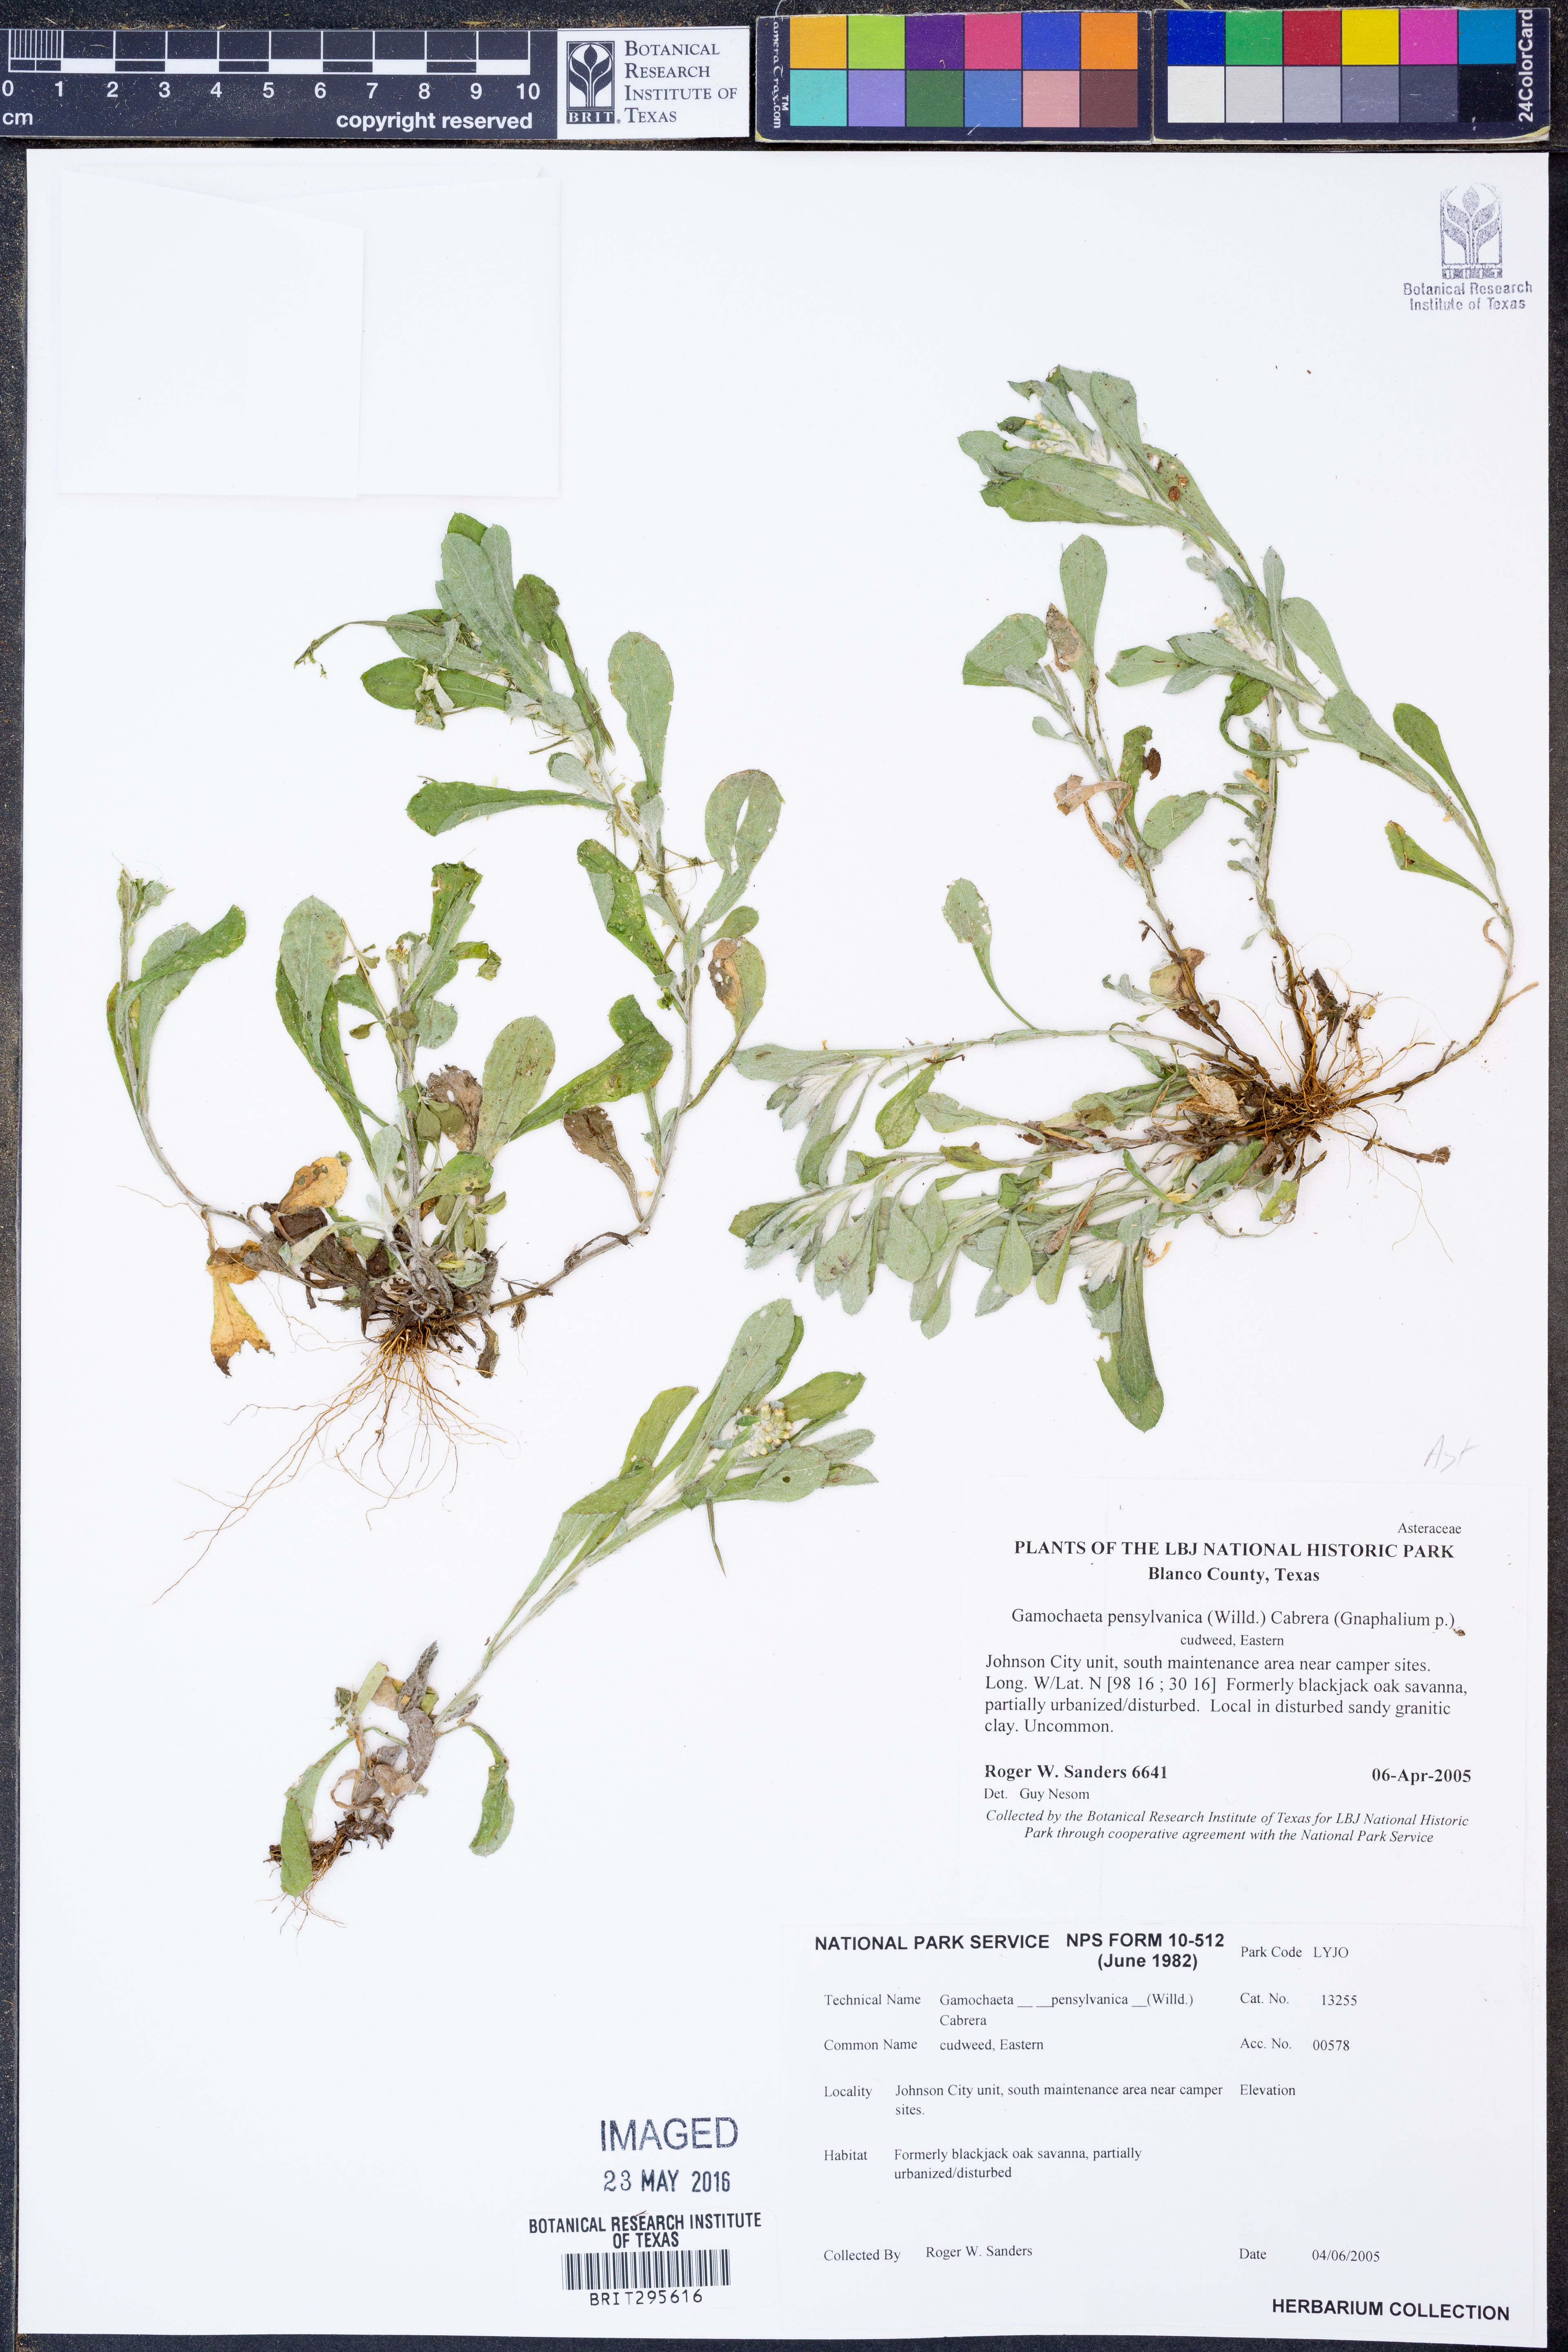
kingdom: Plantae
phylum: Tracheophyta
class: Magnoliopsida
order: Asterales
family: Asteraceae
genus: Gamochaeta
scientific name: Gamochaeta pensylvanica
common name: Pennsylvania everlasting
